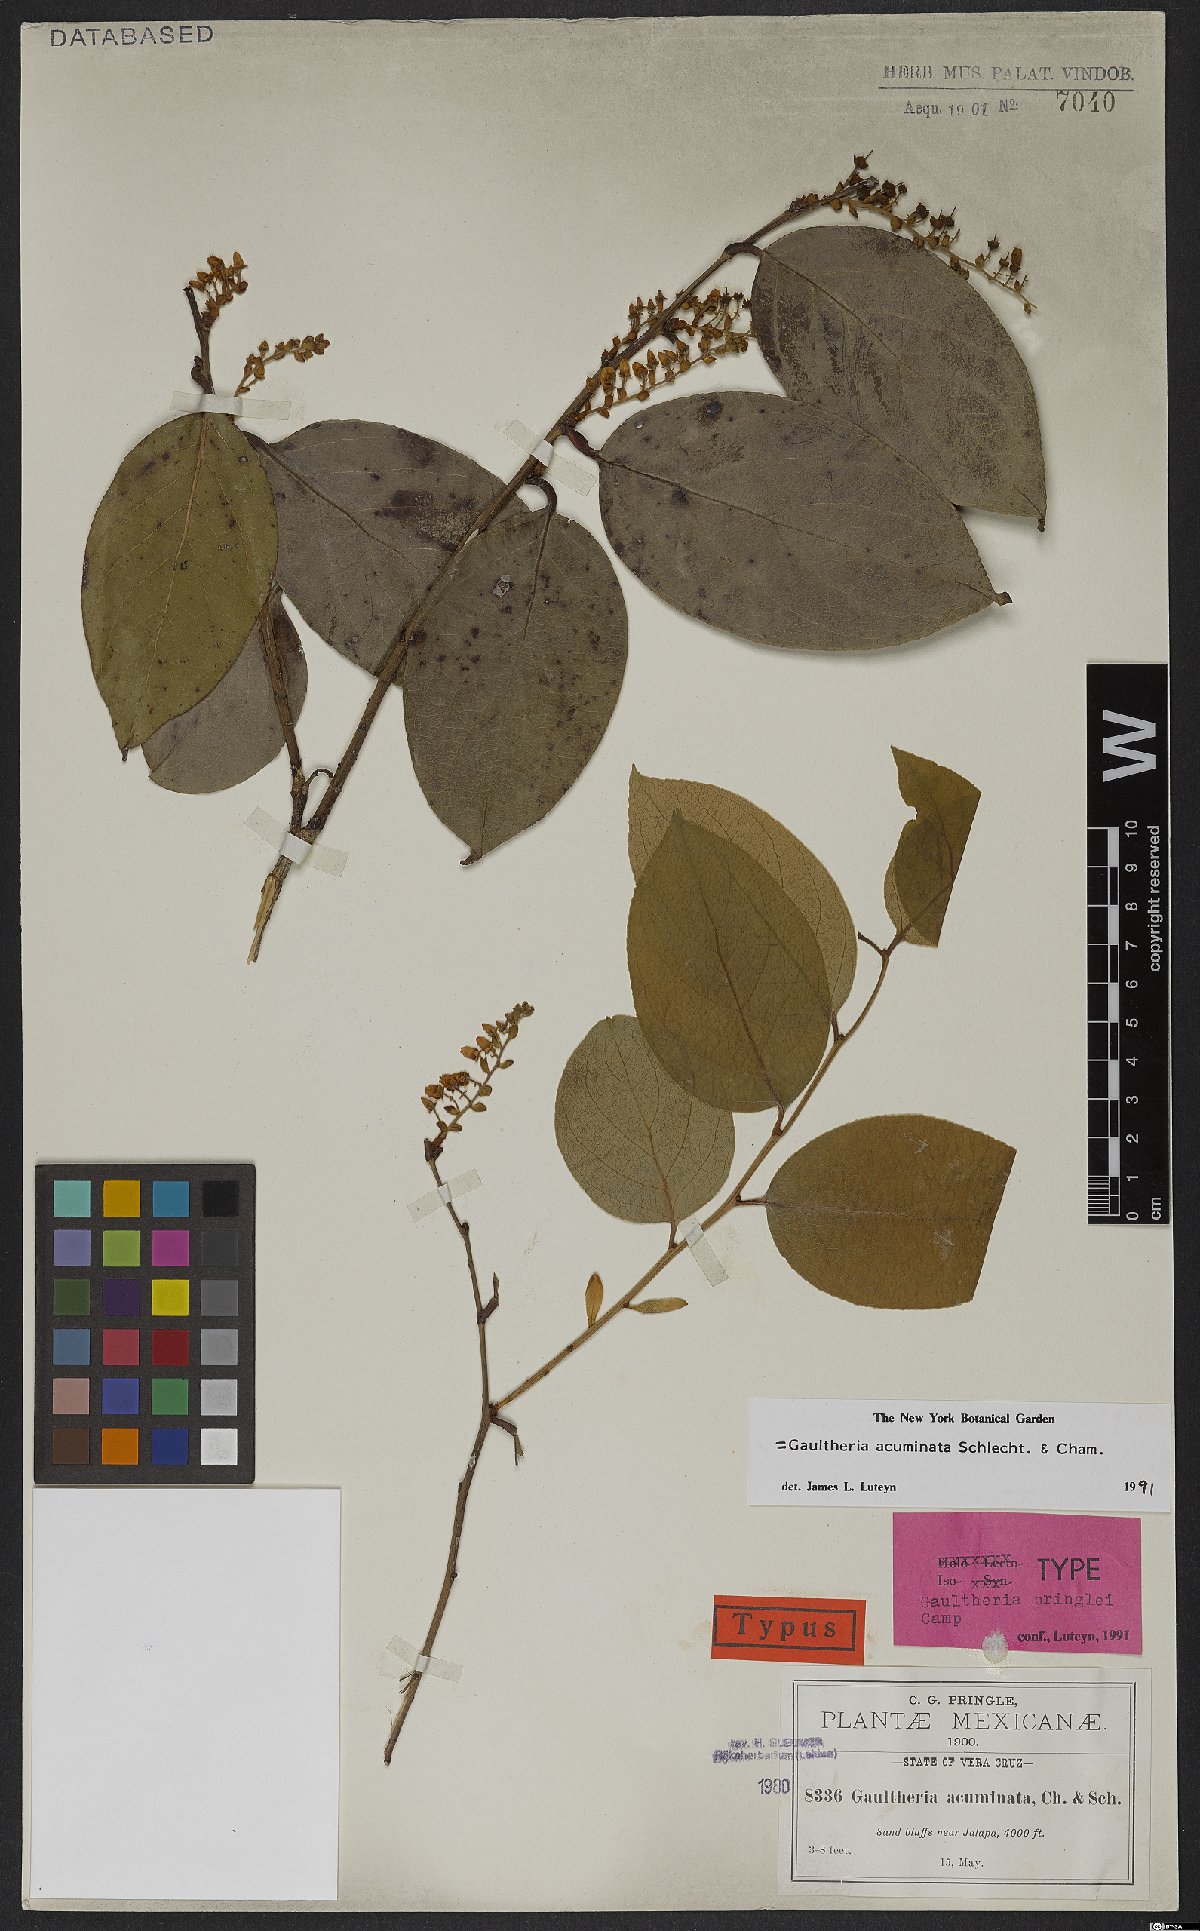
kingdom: Plantae
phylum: Tracheophyta
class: Magnoliopsida
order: Ericales
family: Ericaceae
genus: Gaultheria
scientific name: Gaultheria acuminata
